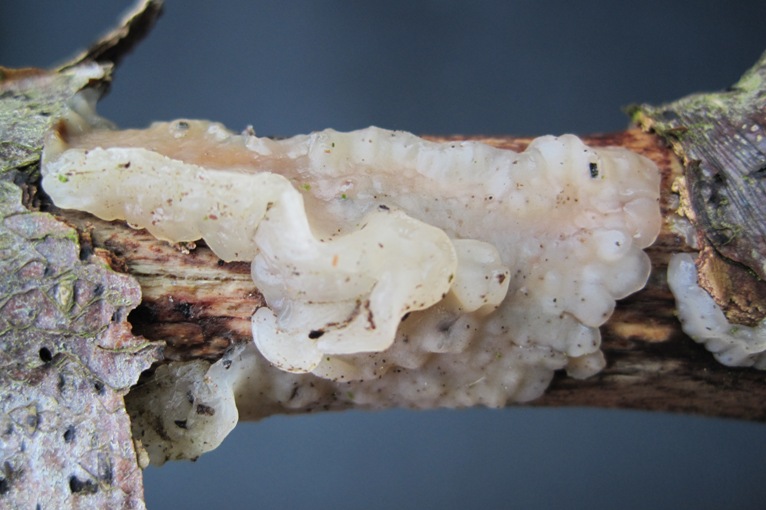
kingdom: Fungi
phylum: Basidiomycota
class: Agaricomycetes
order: Auriculariales
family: Hyaloriaceae
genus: Myxarium
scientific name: Myxarium nucleatum
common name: klar bævretop
